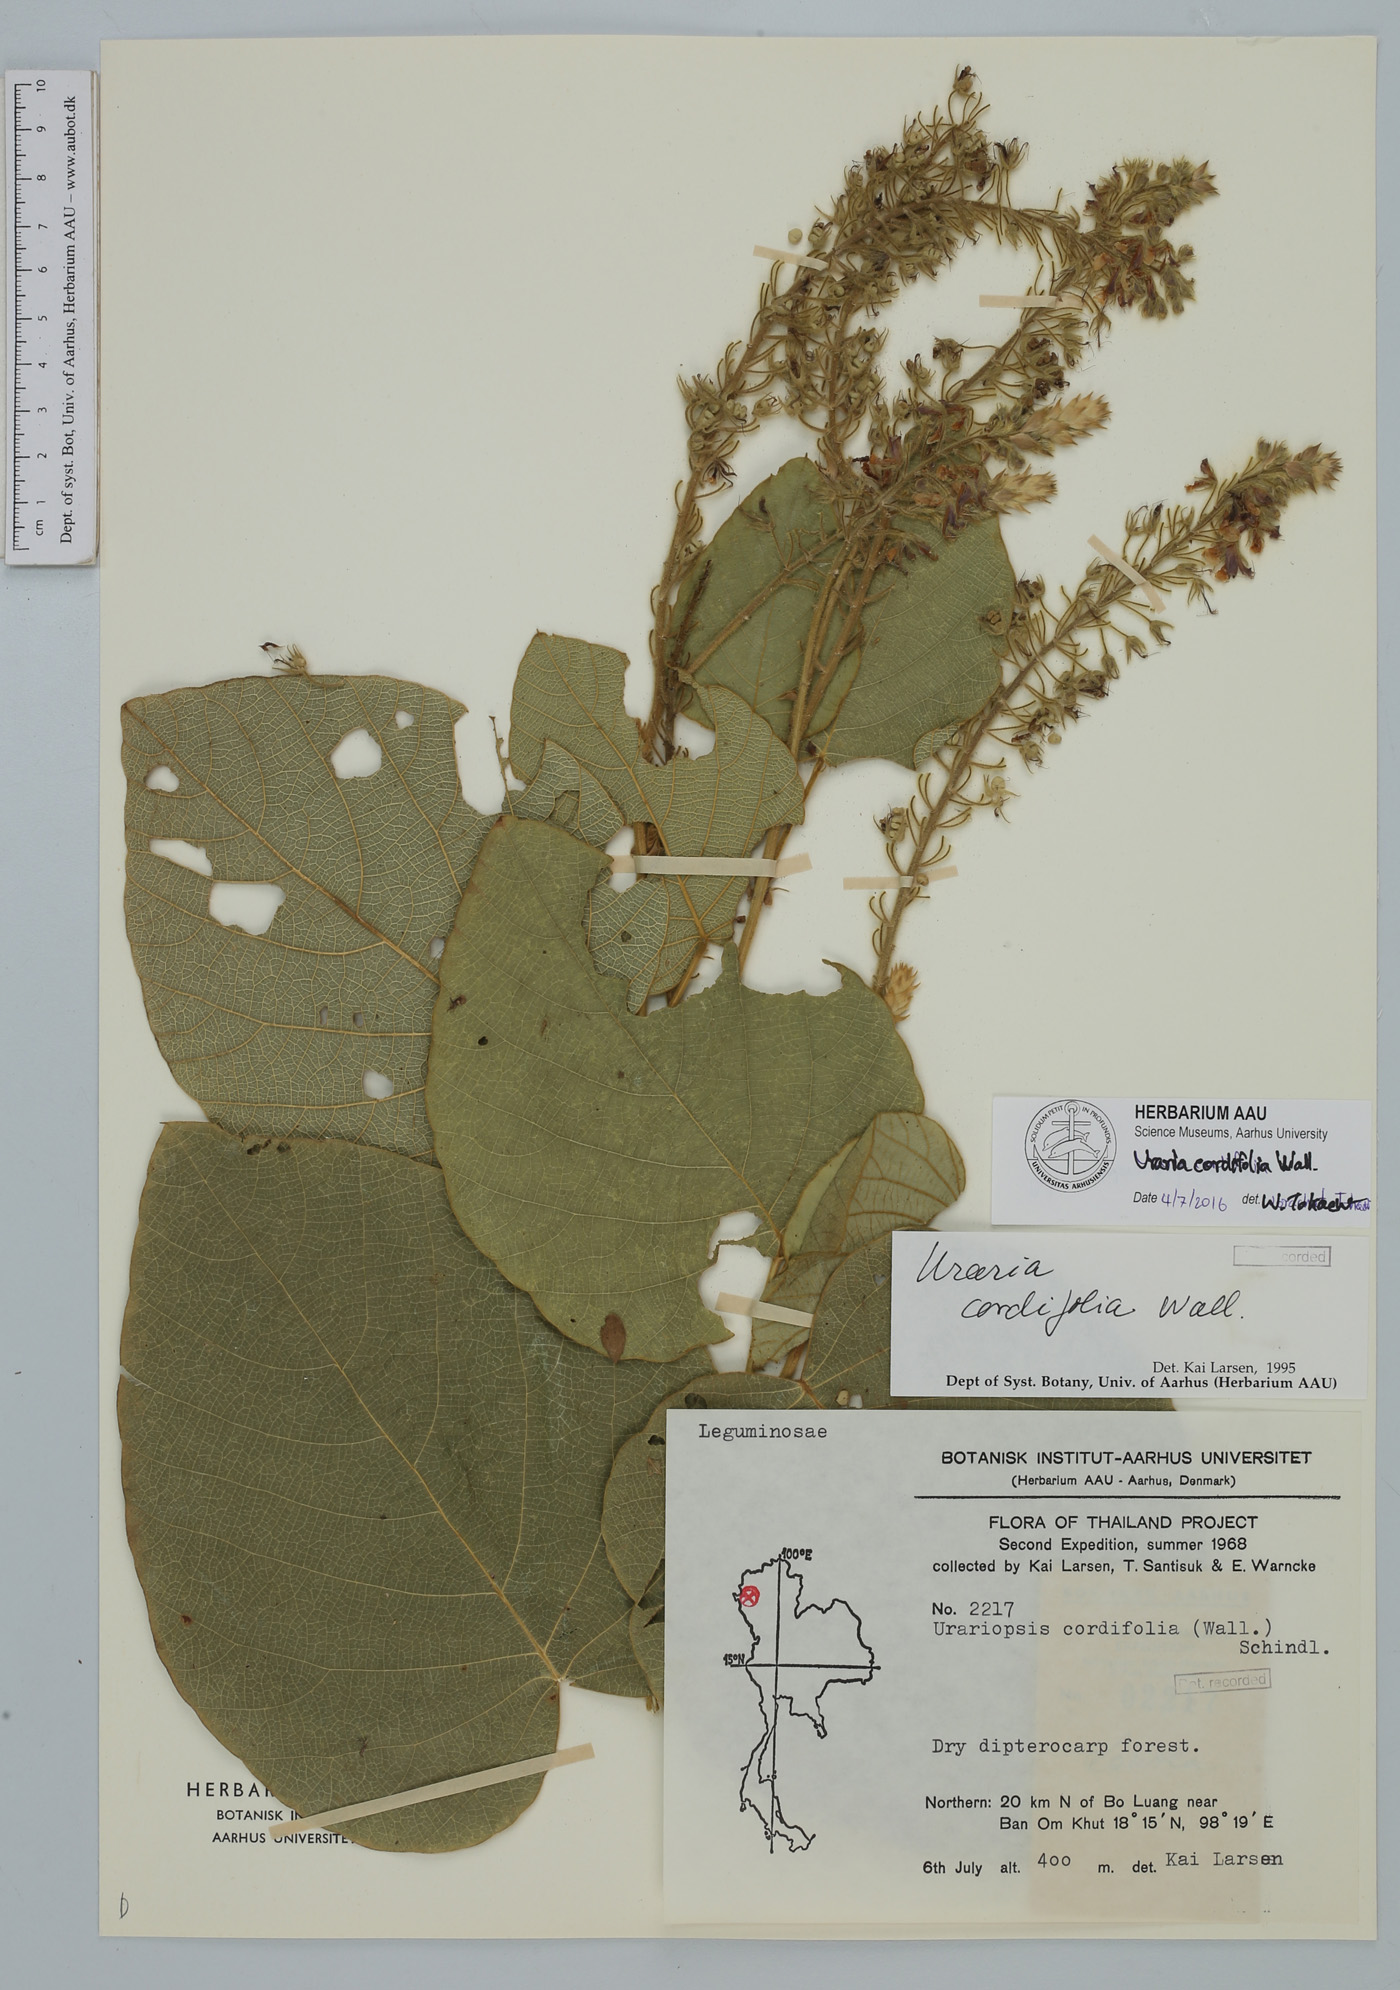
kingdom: Plantae
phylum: Tracheophyta
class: Magnoliopsida
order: Fabales
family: Fabaceae
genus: Uraria
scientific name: Uraria cordifolia
